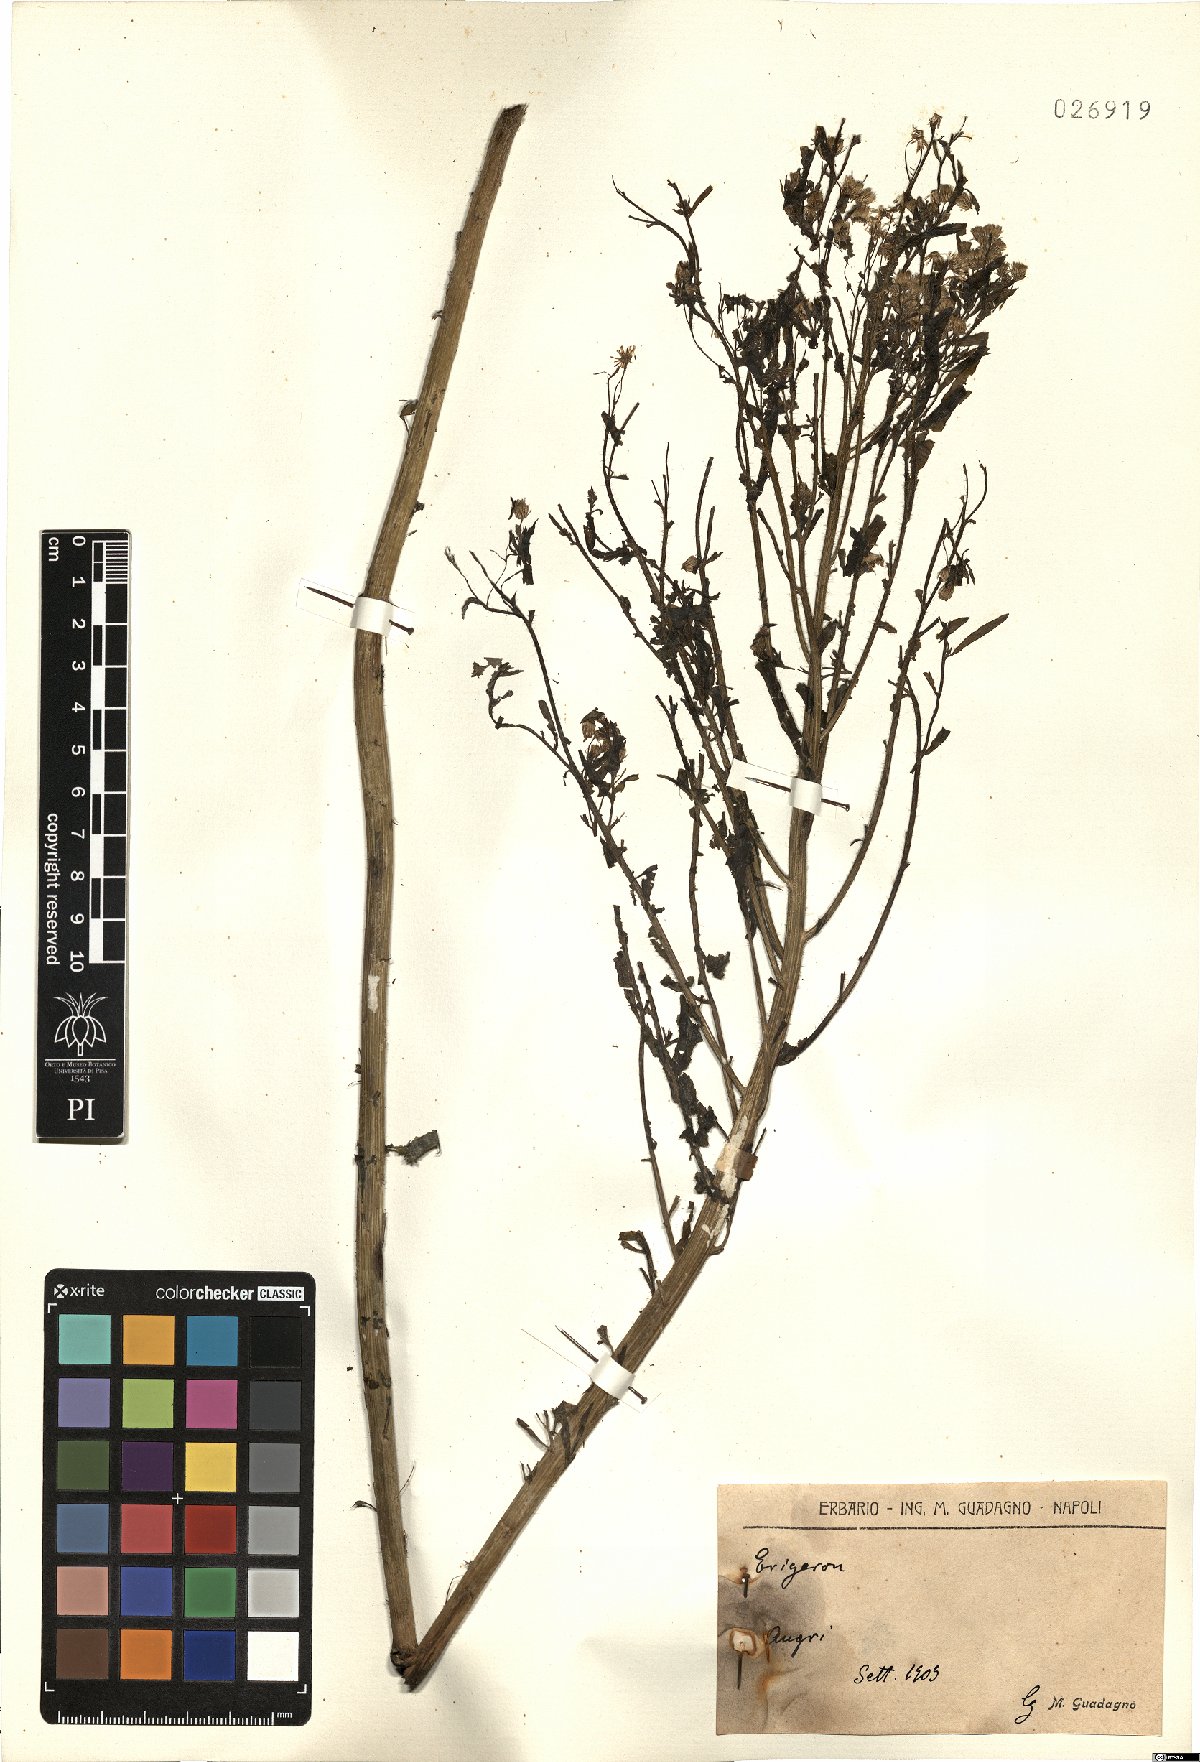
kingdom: Plantae
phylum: Tracheophyta
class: Magnoliopsida
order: Asterales
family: Asteraceae
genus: Erigeron
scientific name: Erigeron
